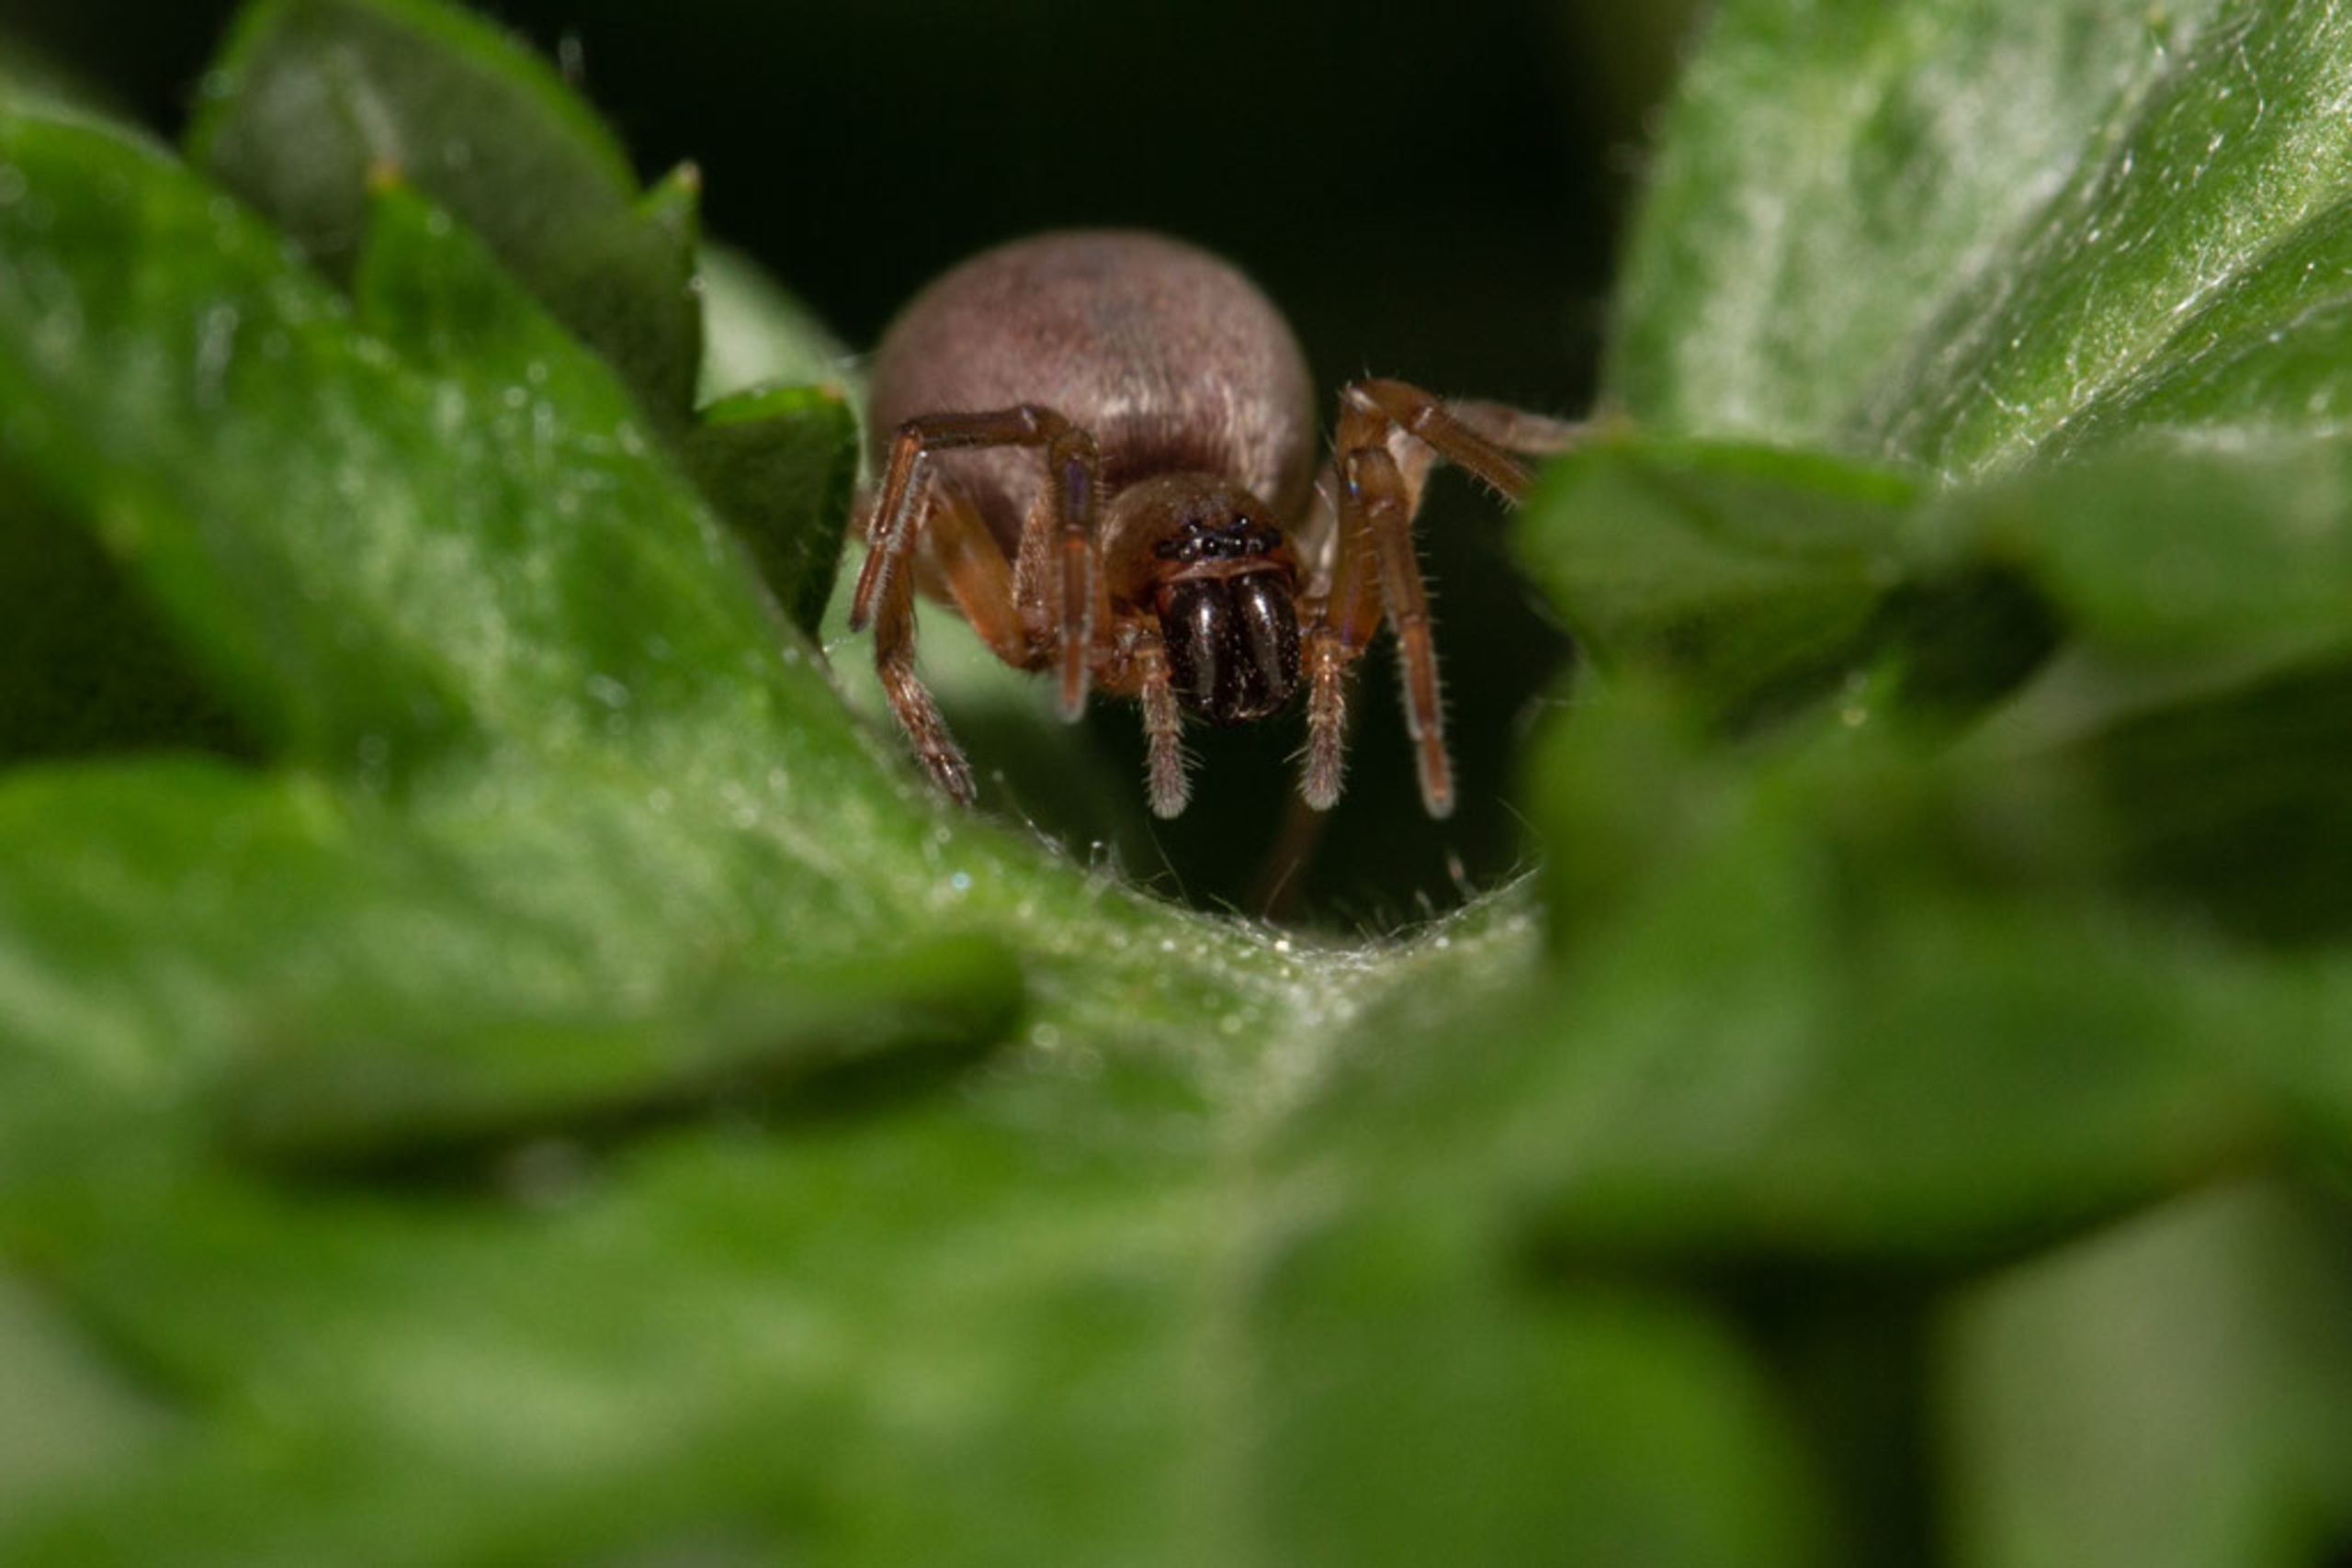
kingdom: Animalia
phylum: Arthropoda
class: Arachnida
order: Araneae
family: Clubionidae
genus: Clubiona
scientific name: Clubiona
